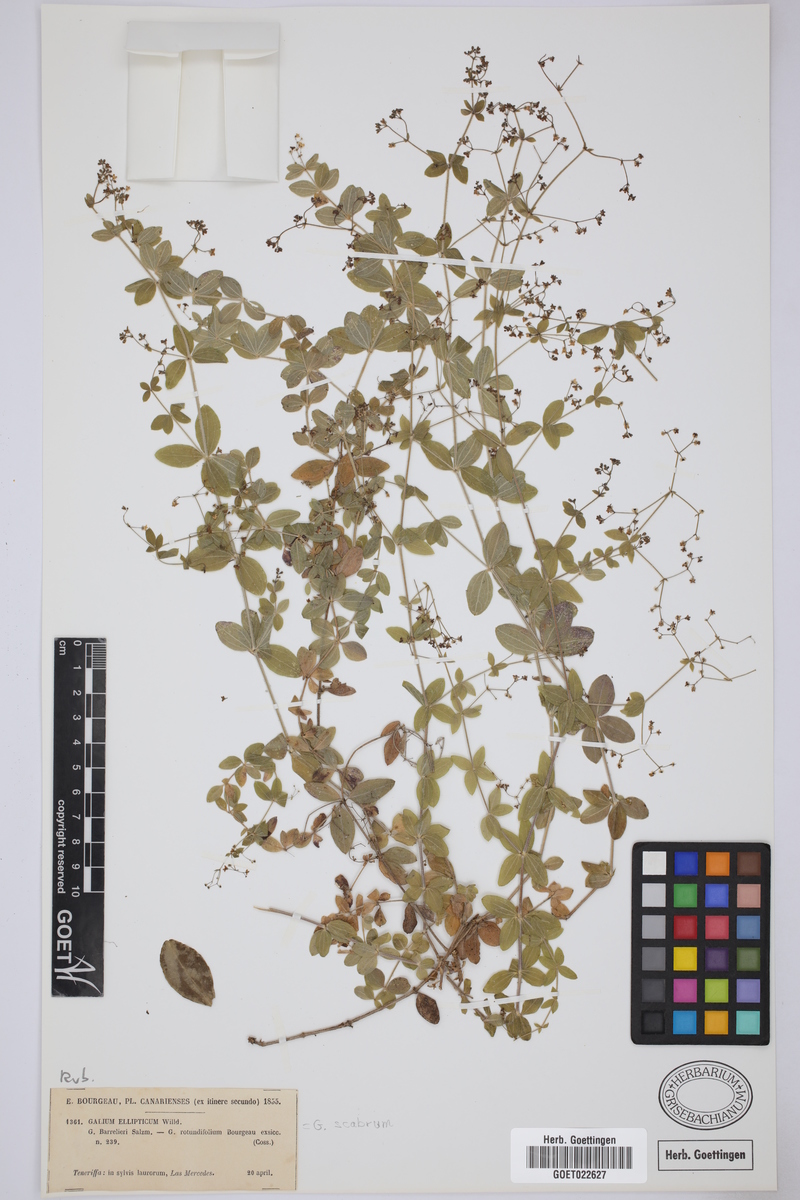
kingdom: Plantae
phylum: Tracheophyta
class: Magnoliopsida
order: Gentianales
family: Rubiaceae
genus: Galium
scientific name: Galium scabrum
